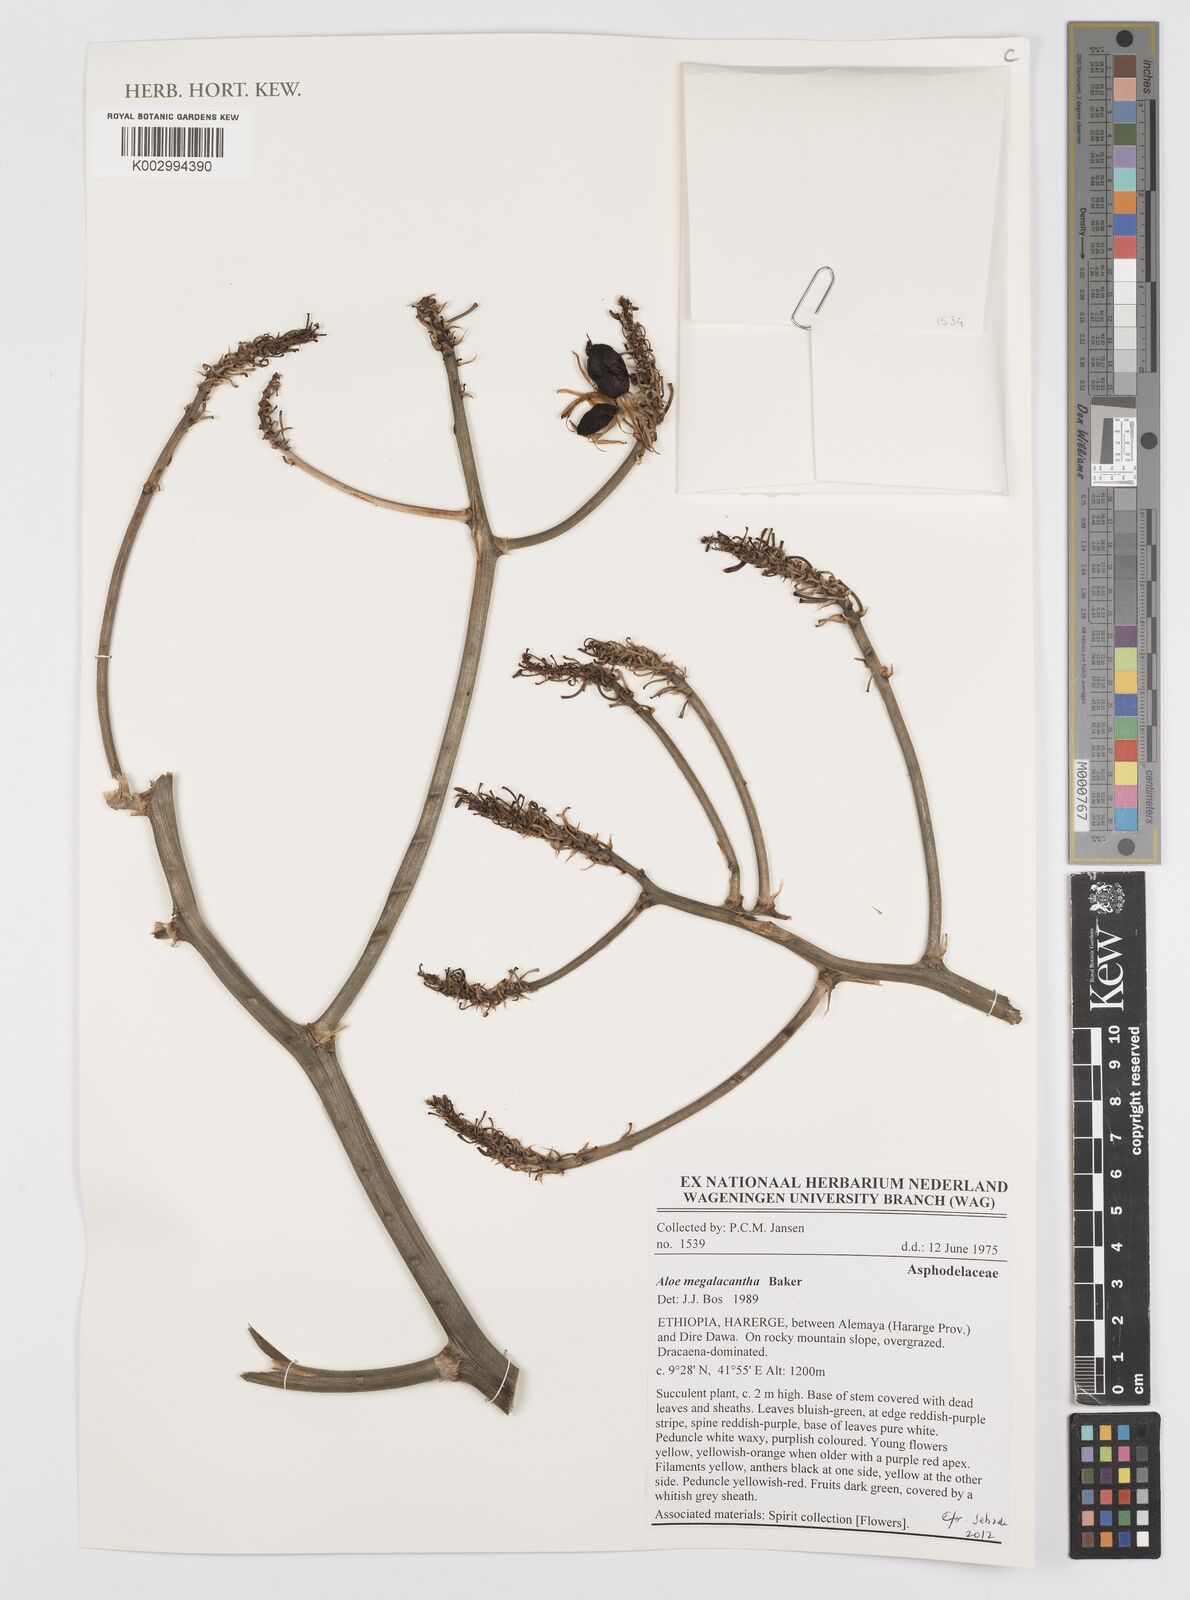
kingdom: Plantae
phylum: Tracheophyta
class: Liliopsida
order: Asparagales
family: Asphodelaceae
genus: Aloe
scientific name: Aloe megalacantha
